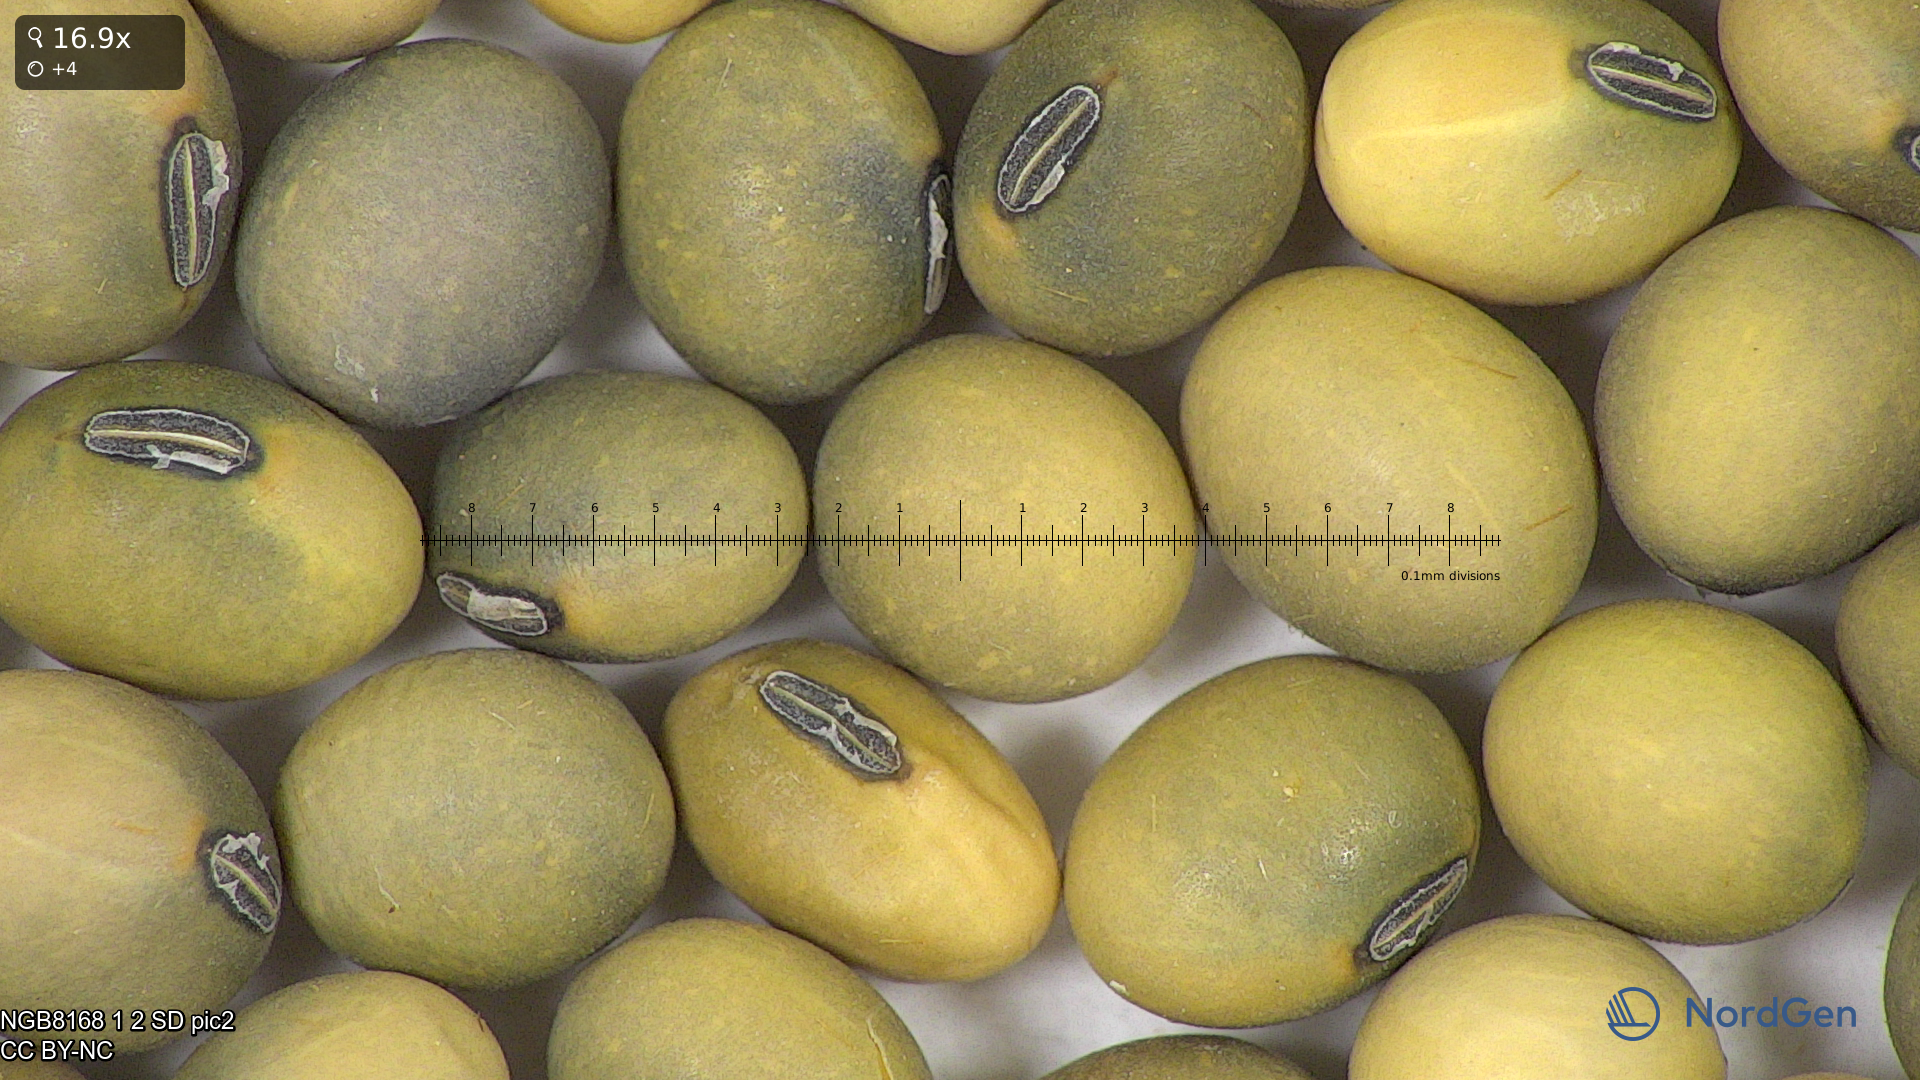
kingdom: Plantae
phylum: Tracheophyta
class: Magnoliopsida
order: Fabales
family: Fabaceae
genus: Glycine
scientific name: Glycine max
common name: Soya-bean
